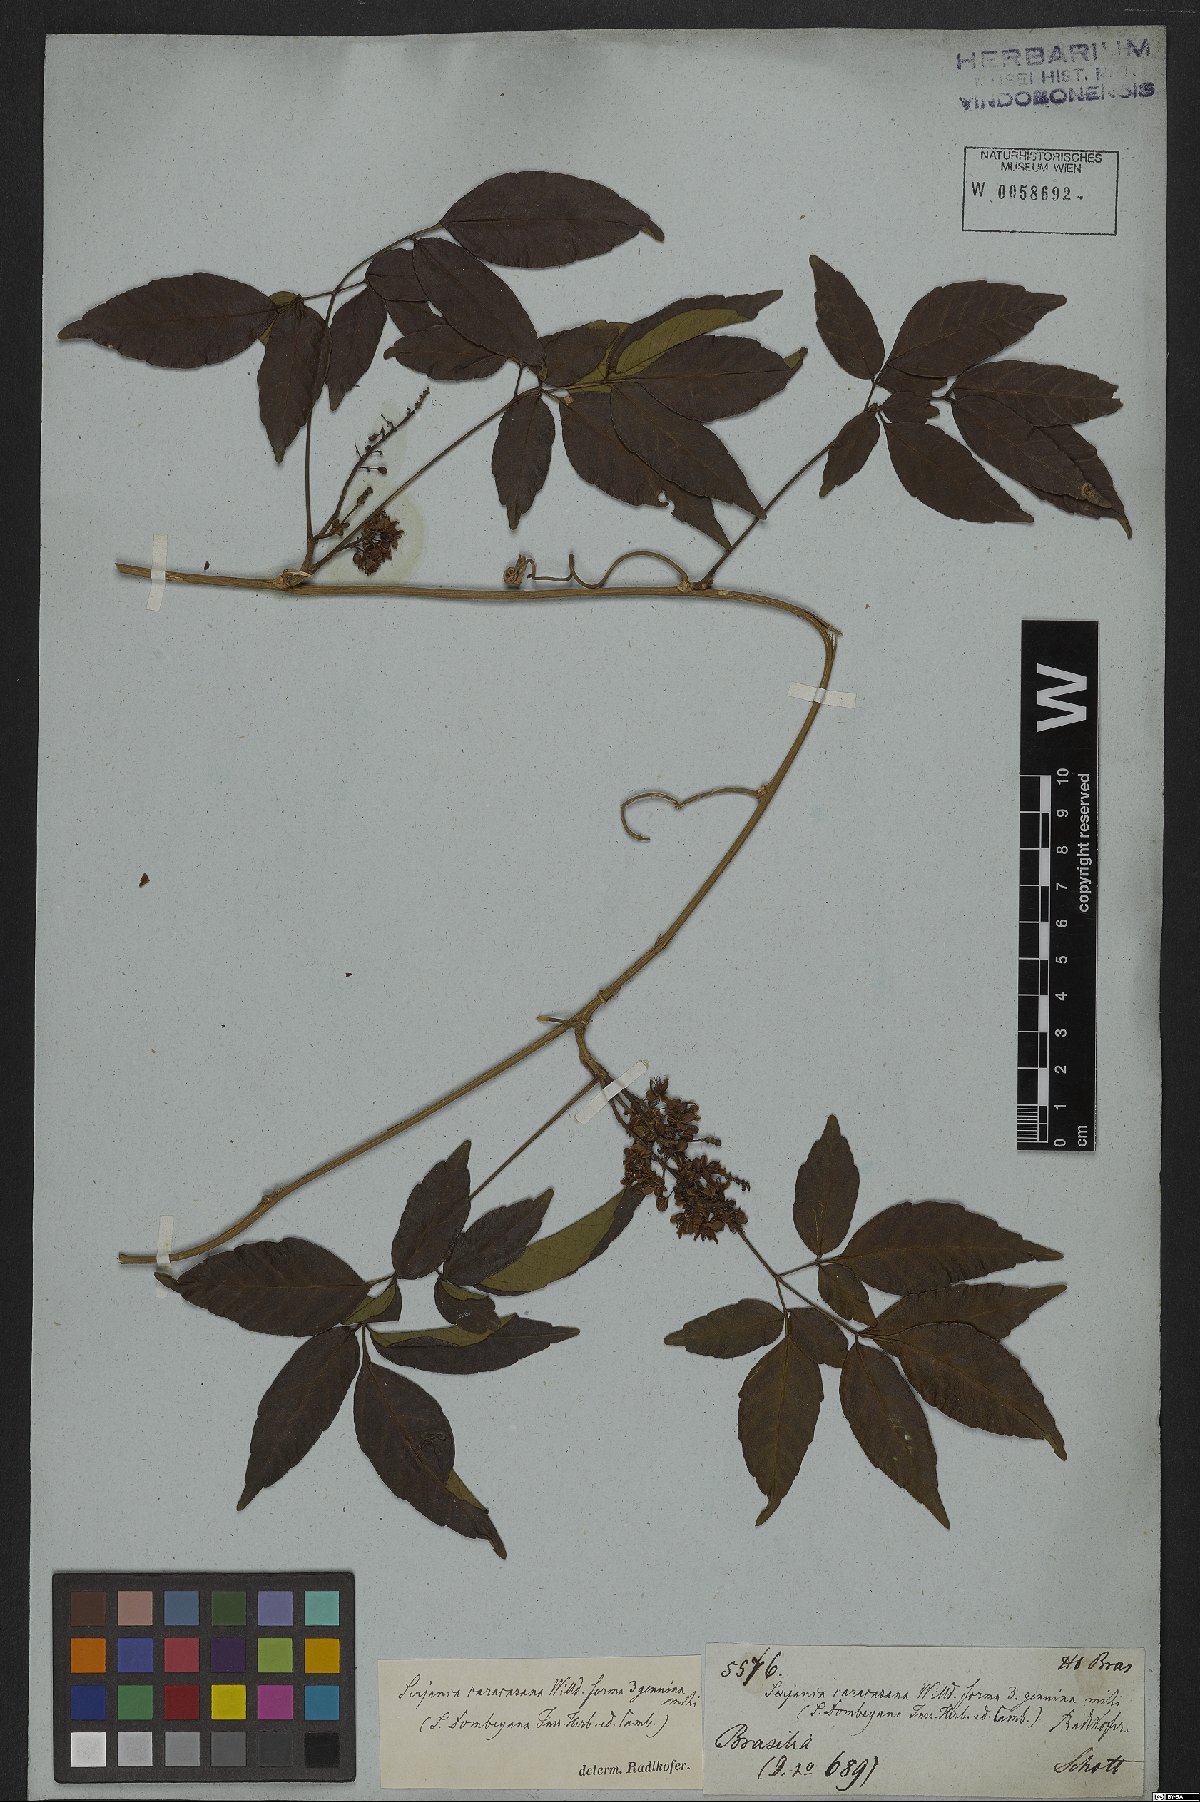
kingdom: Plantae
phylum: Tracheophyta
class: Magnoliopsida
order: Sapindales
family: Sapindaceae
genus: Serjania
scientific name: Serjania caracasana
